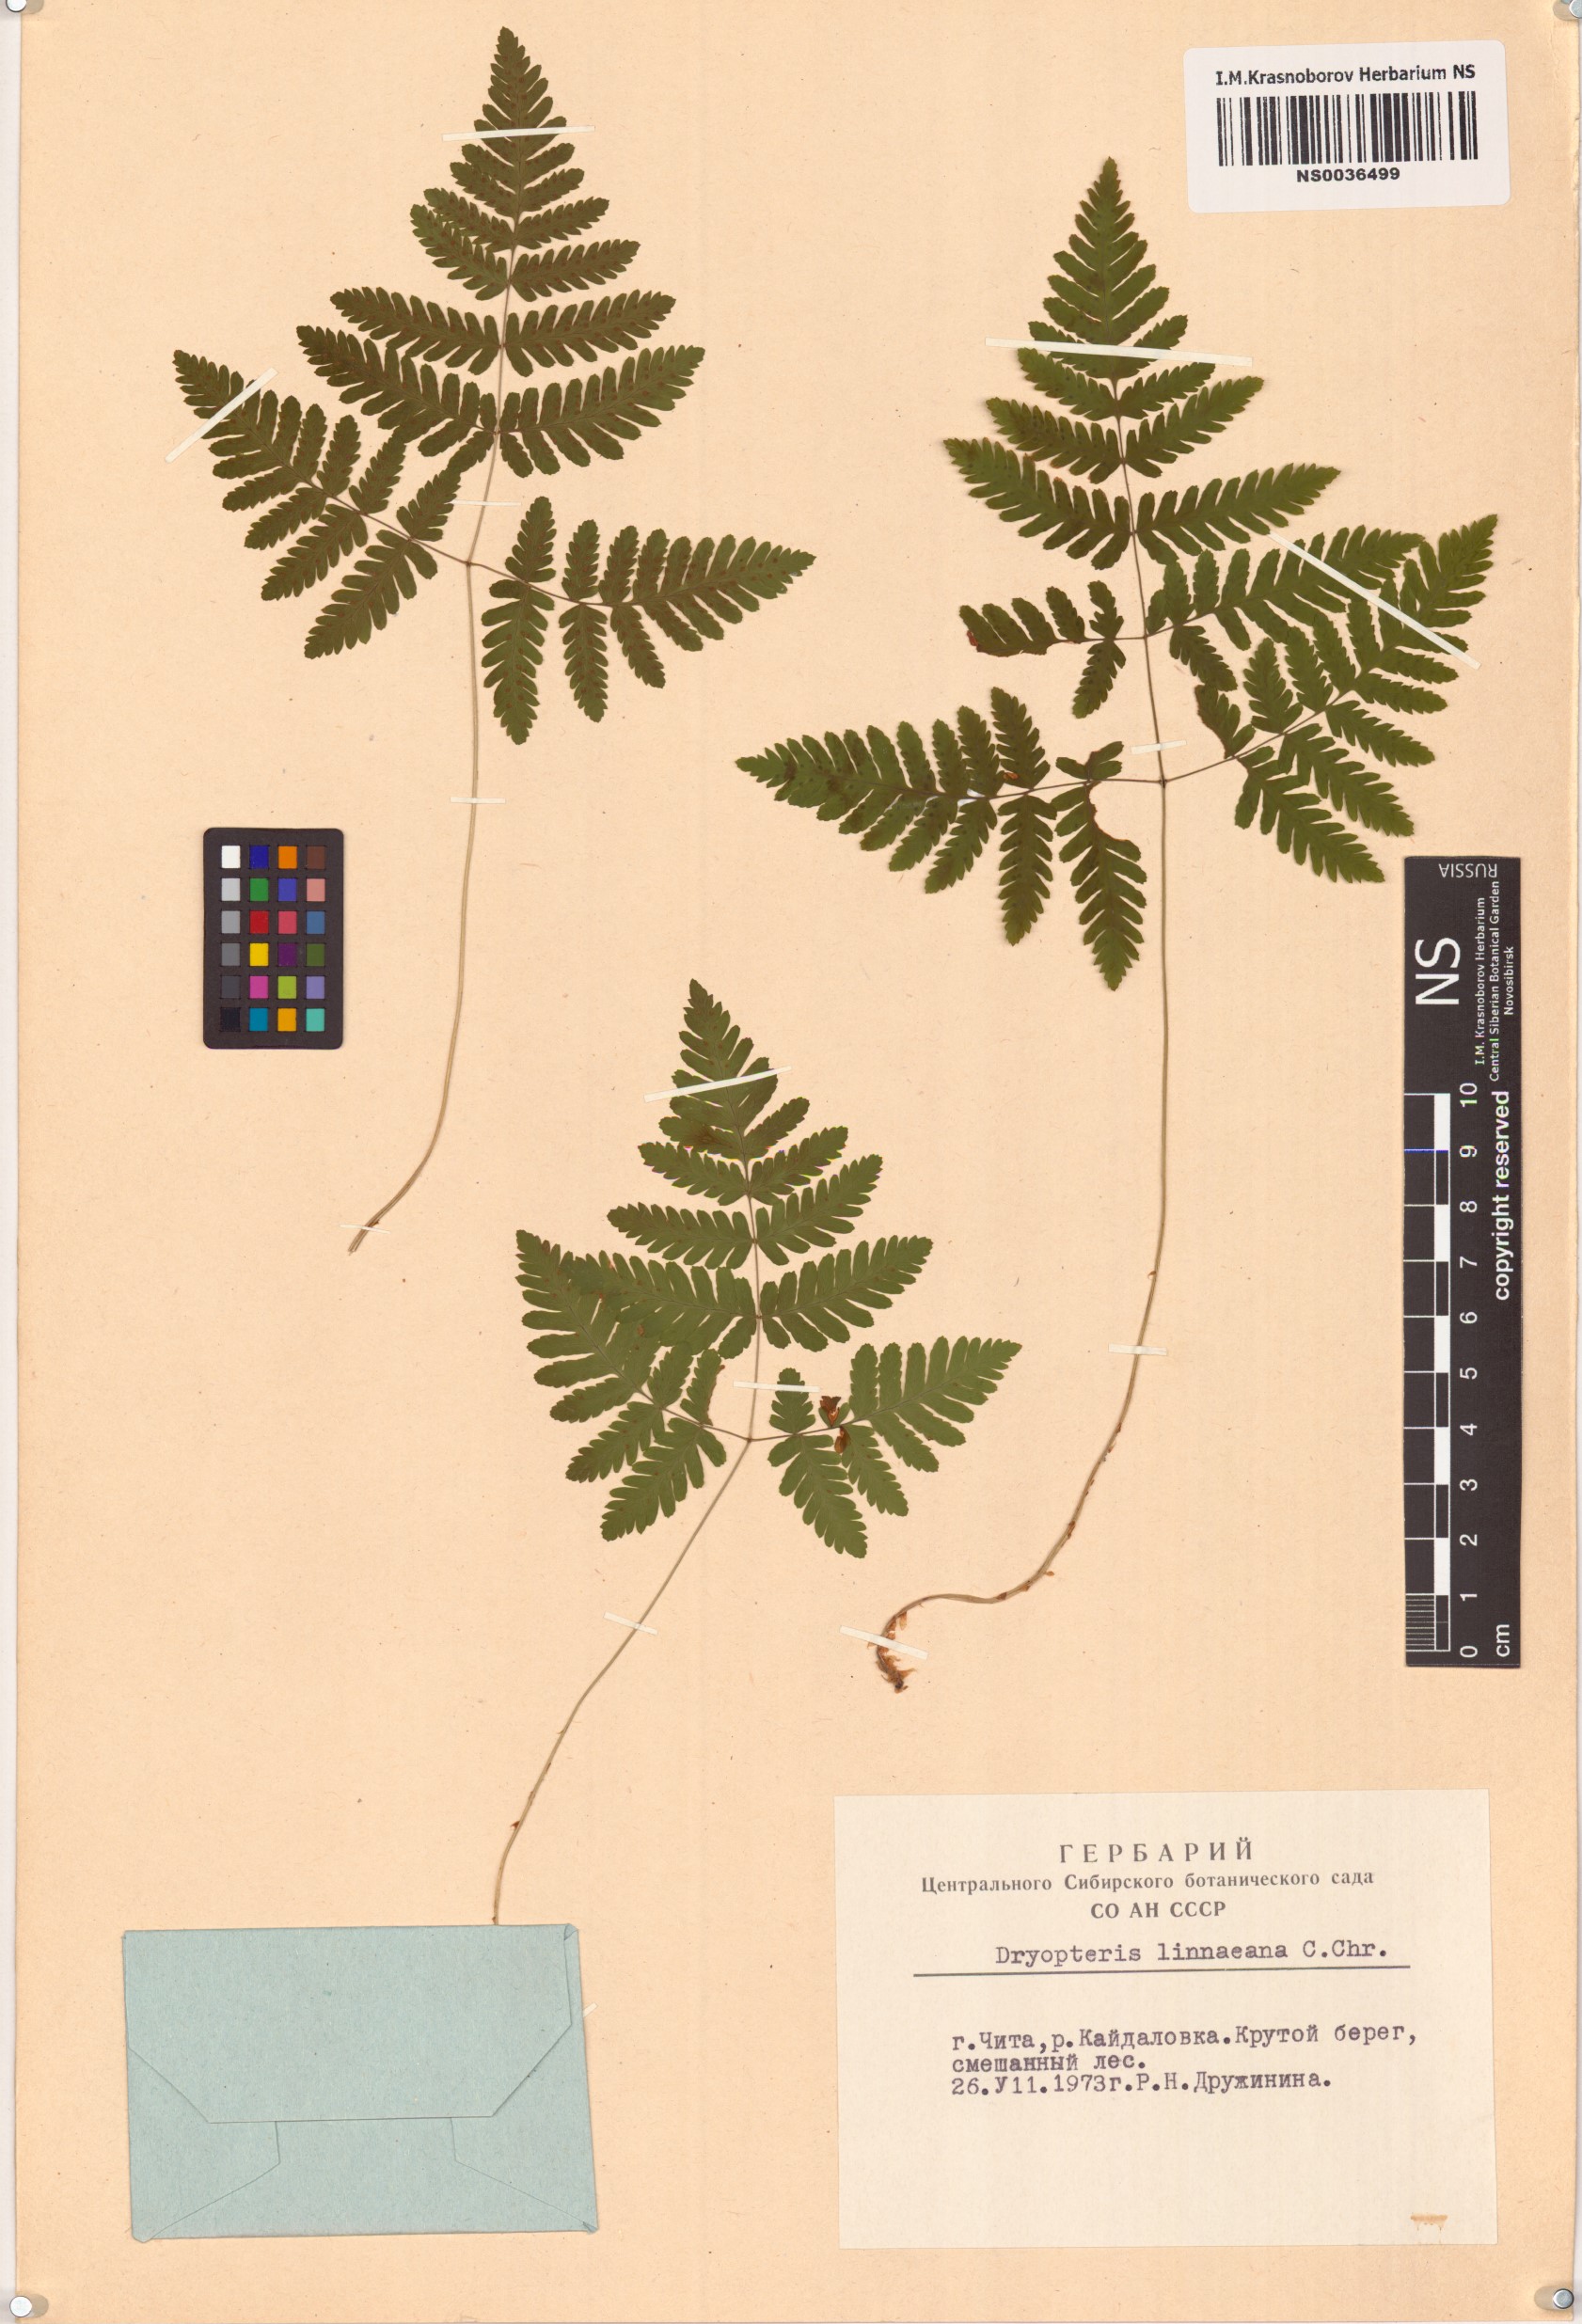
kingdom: Plantae
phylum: Tracheophyta
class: Polypodiopsida
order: Polypodiales
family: Cystopteridaceae
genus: Gymnocarpium
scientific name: Gymnocarpium dryopteris
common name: Oak fern
